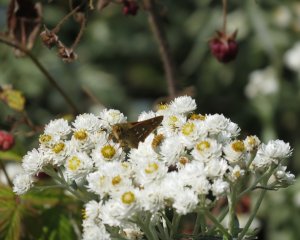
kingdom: Animalia
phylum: Arthropoda
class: Insecta
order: Lepidoptera
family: Hesperiidae
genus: Hesperia
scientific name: Hesperia comma
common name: Common Branded Skipper
